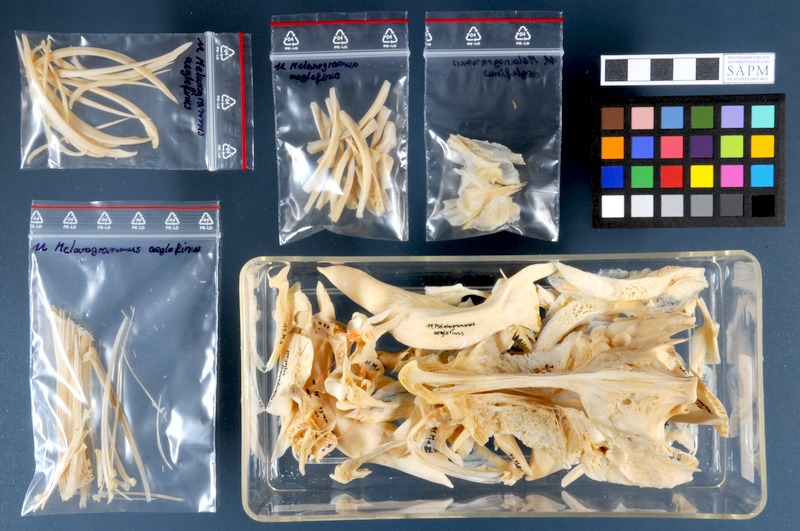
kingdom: Animalia
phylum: Chordata
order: Gadiformes
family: Gadidae
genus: Melanogrammus
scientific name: Melanogrammus aeglefinus
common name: Haddock
